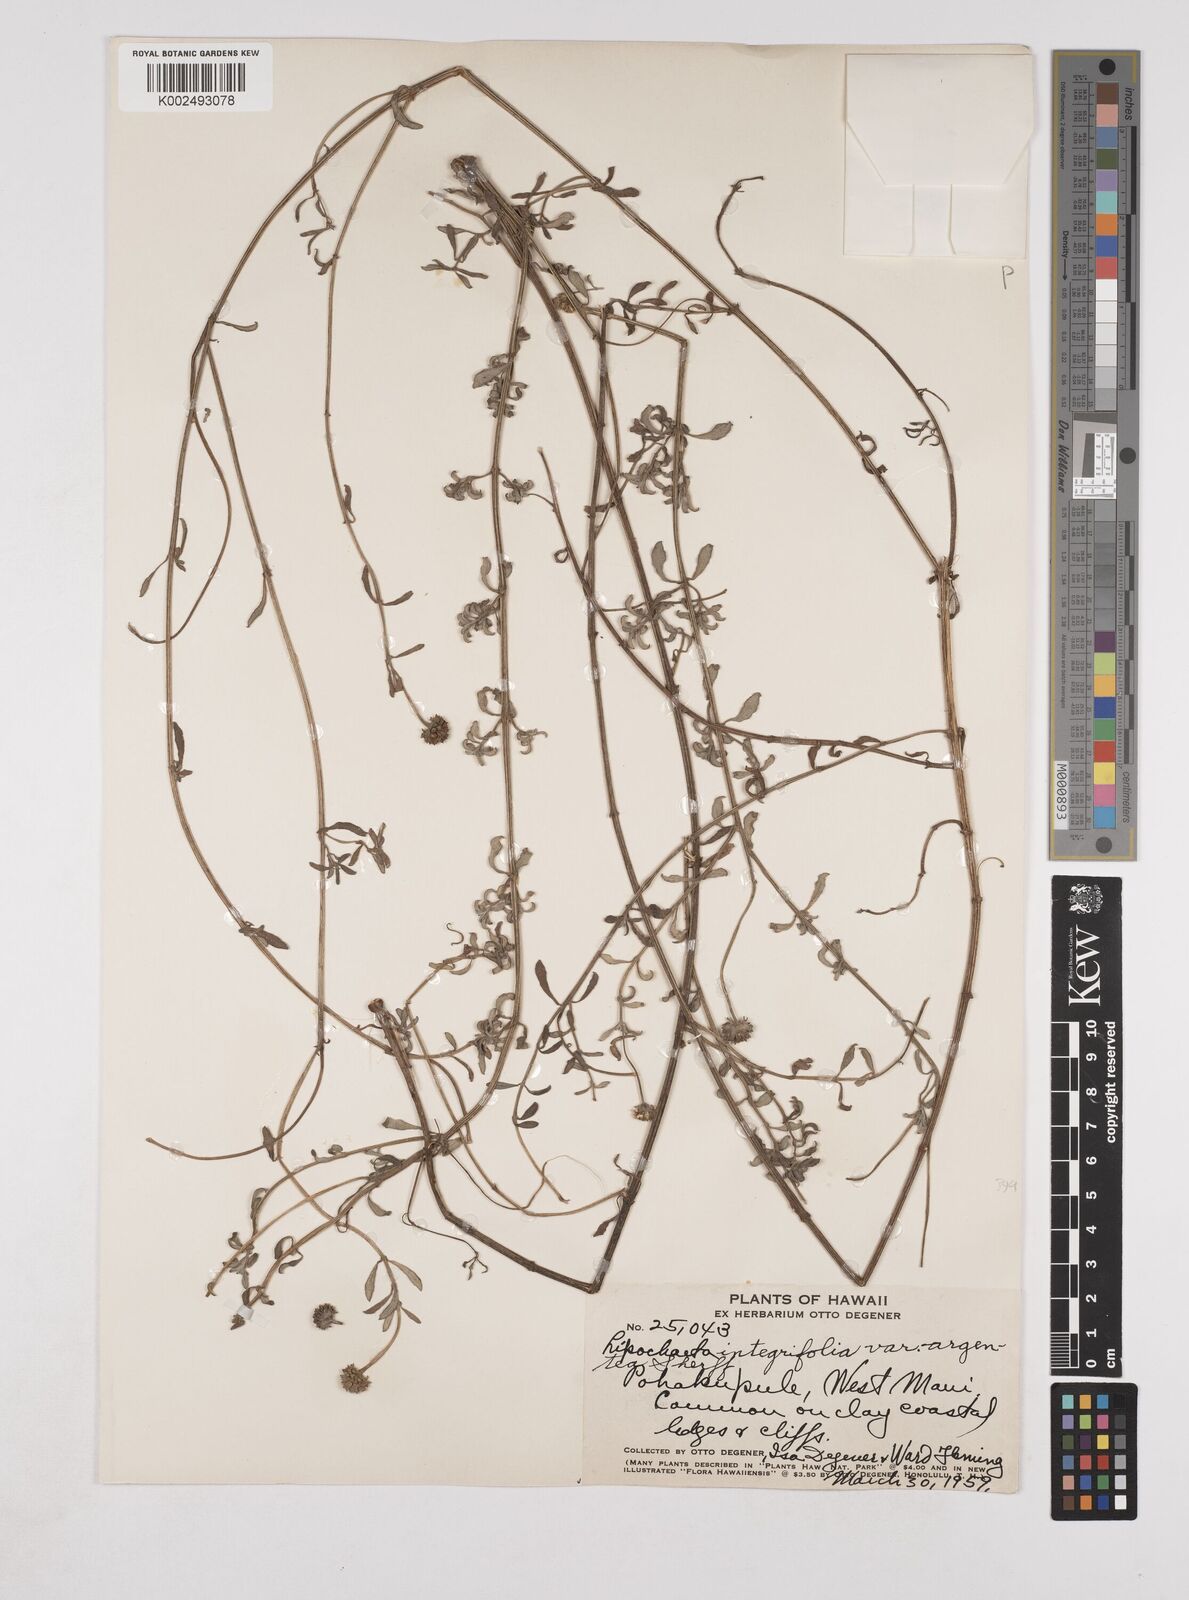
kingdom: Plantae
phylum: Tracheophyta
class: Magnoliopsida
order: Asterales
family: Asteraceae
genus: Lipochaeta
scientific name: Lipochaeta integrifolia
